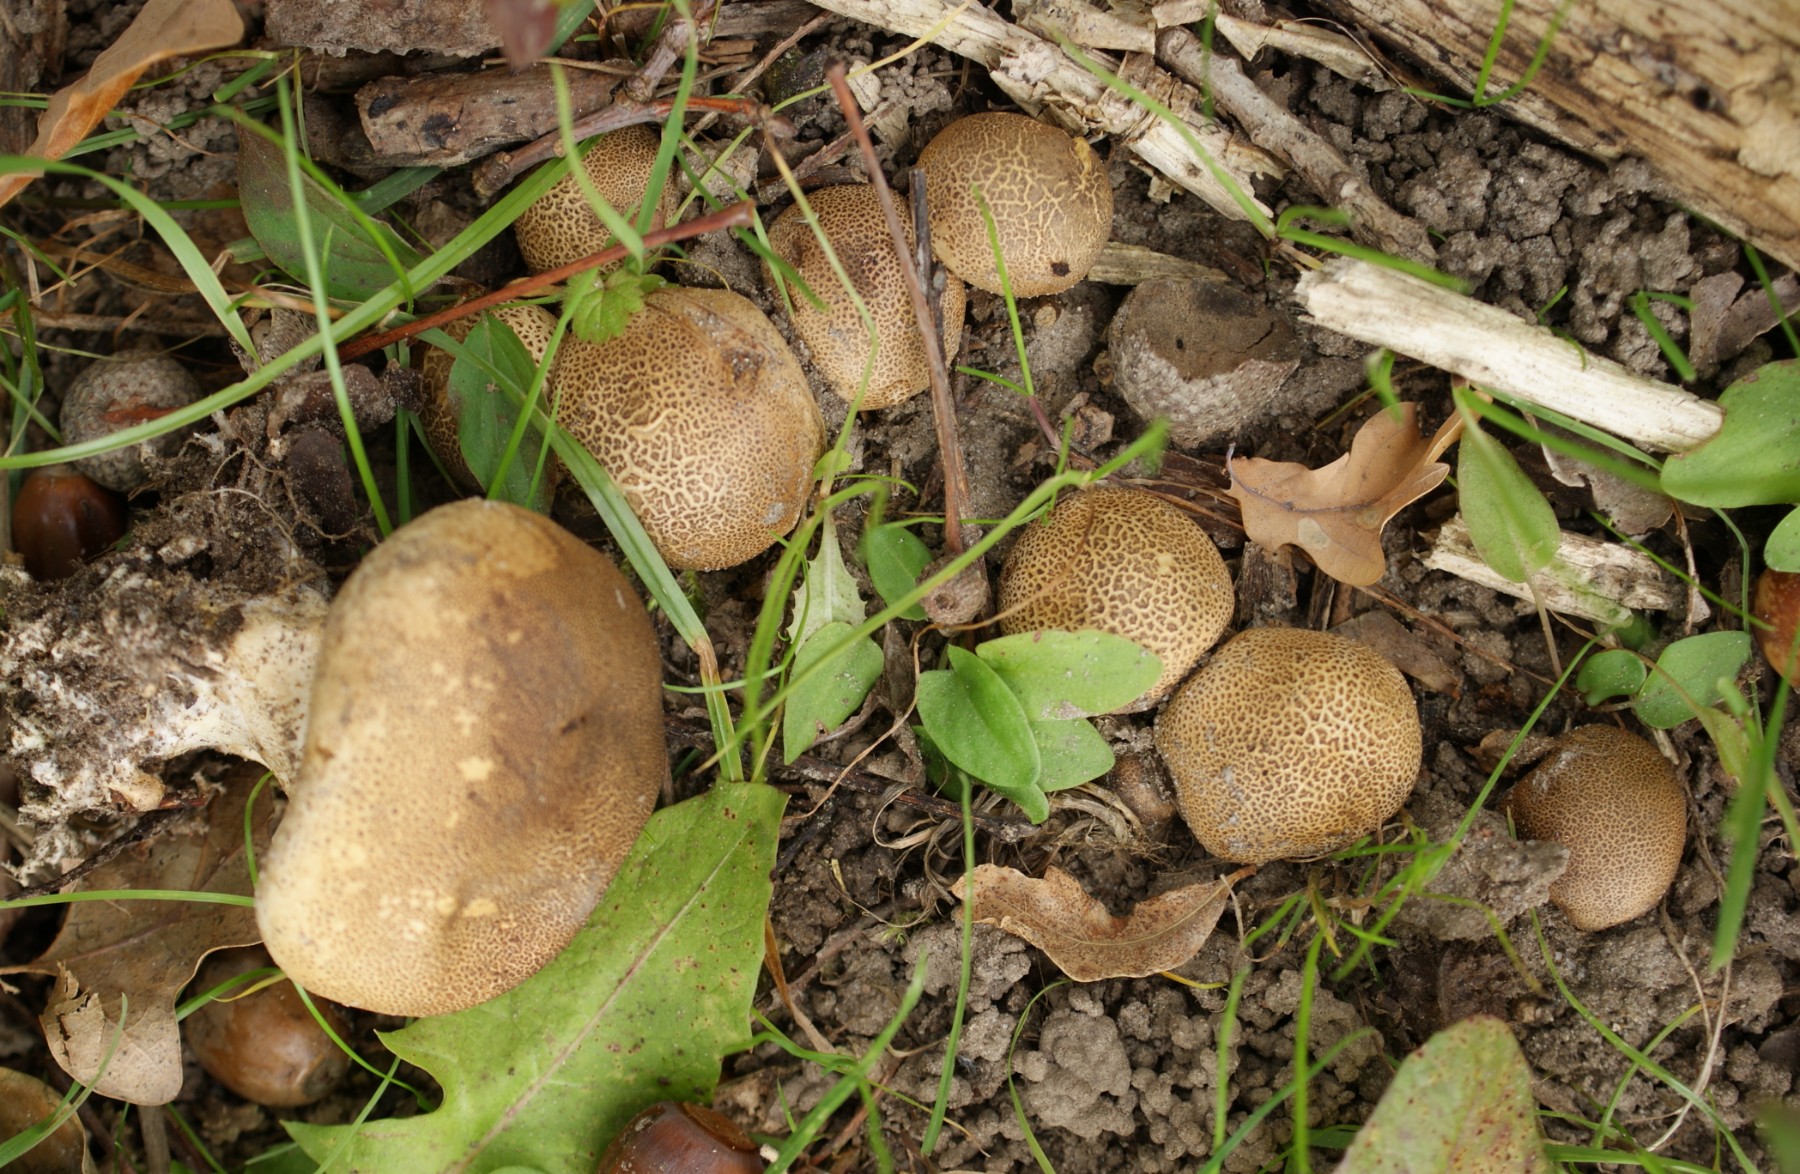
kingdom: Fungi
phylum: Basidiomycota
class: Agaricomycetes
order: Boletales
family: Sclerodermataceae
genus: Scleroderma
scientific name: Scleroderma areolatum
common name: plettet bruskbold
